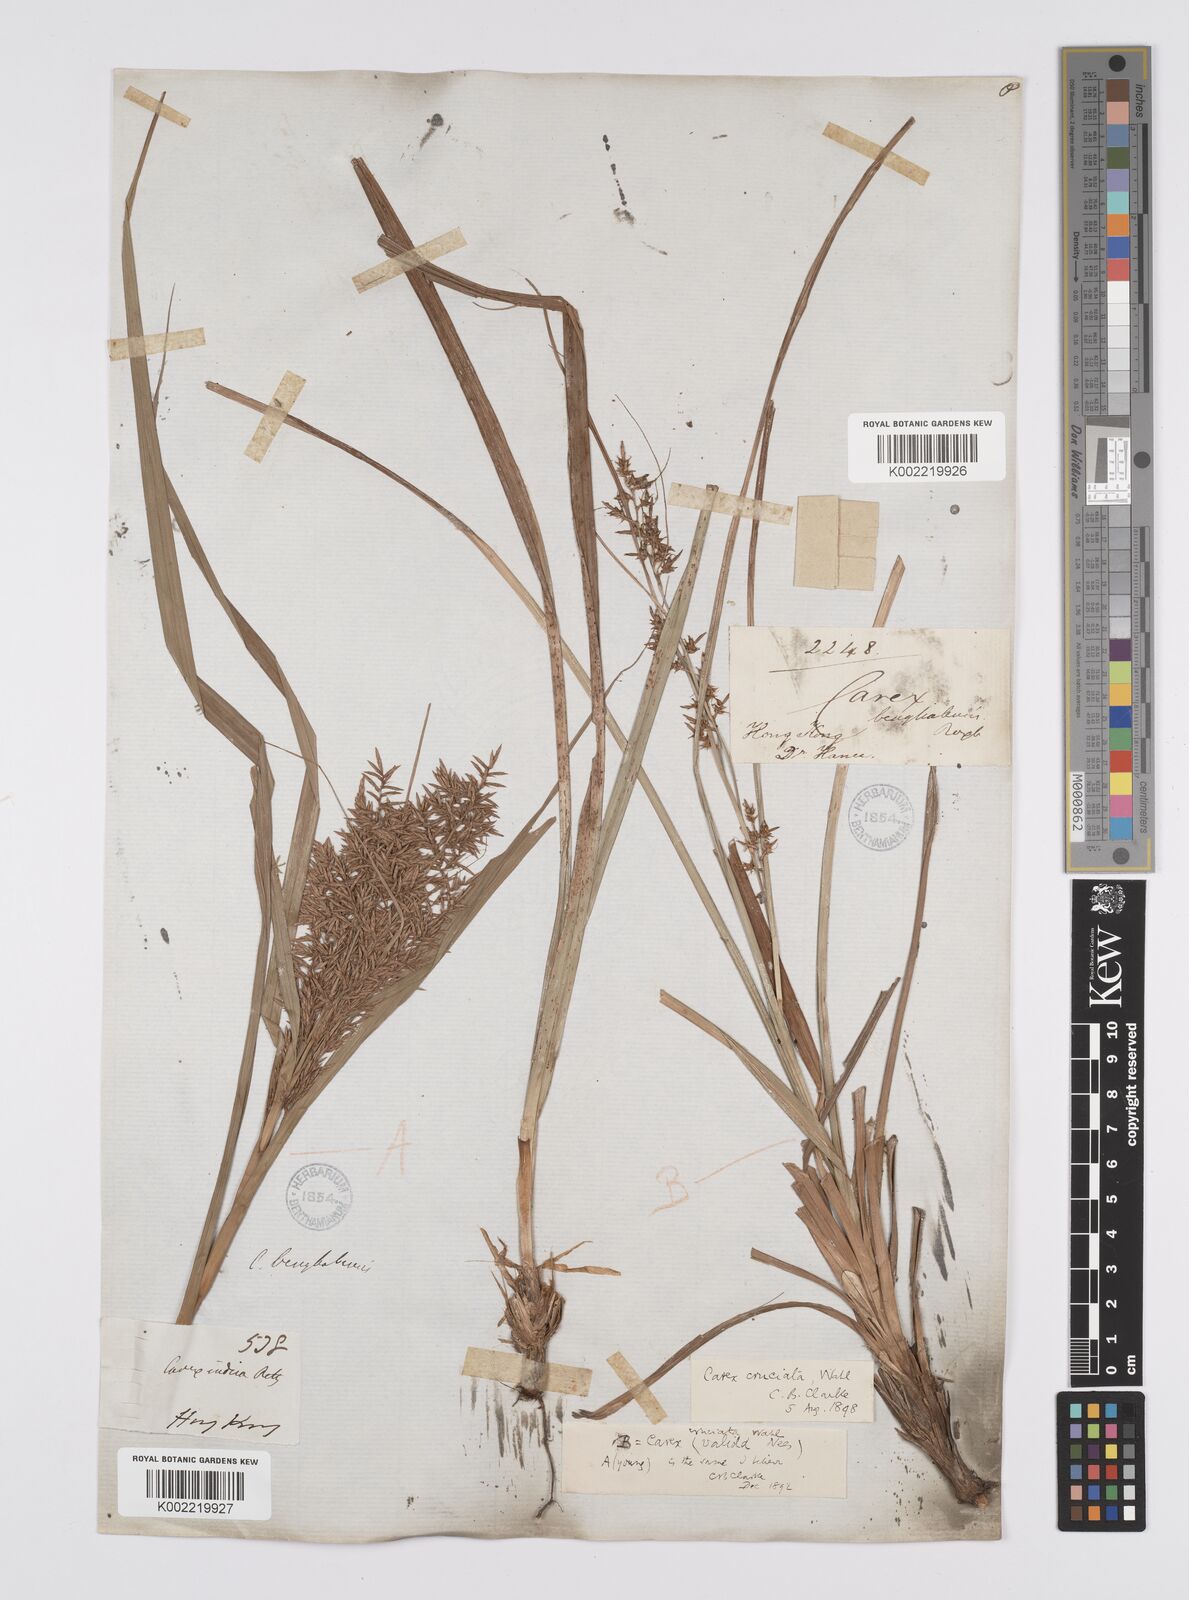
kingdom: Plantae
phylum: Tracheophyta
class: Liliopsida
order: Poales
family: Cyperaceae
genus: Carex
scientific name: Carex cruciata
